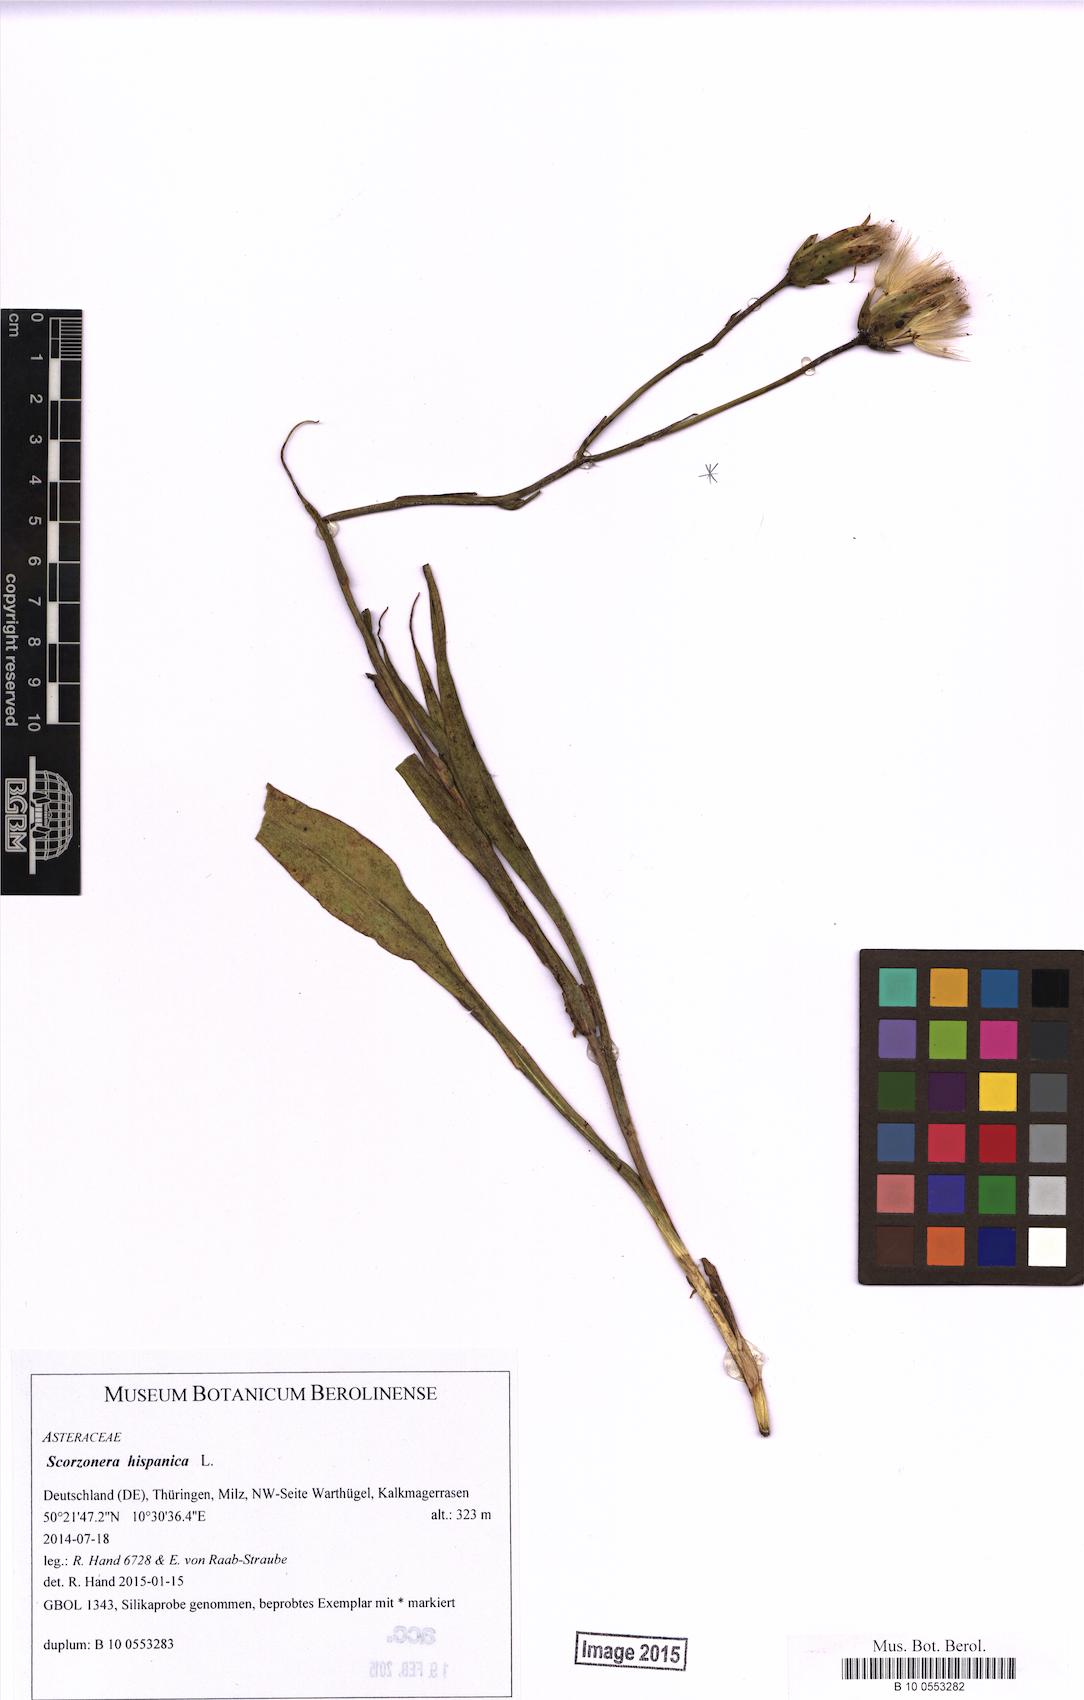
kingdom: Plantae
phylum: Tracheophyta
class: Magnoliopsida
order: Asterales
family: Asteraceae
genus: Pseudopodospermum
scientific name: Pseudopodospermum hispanicum
